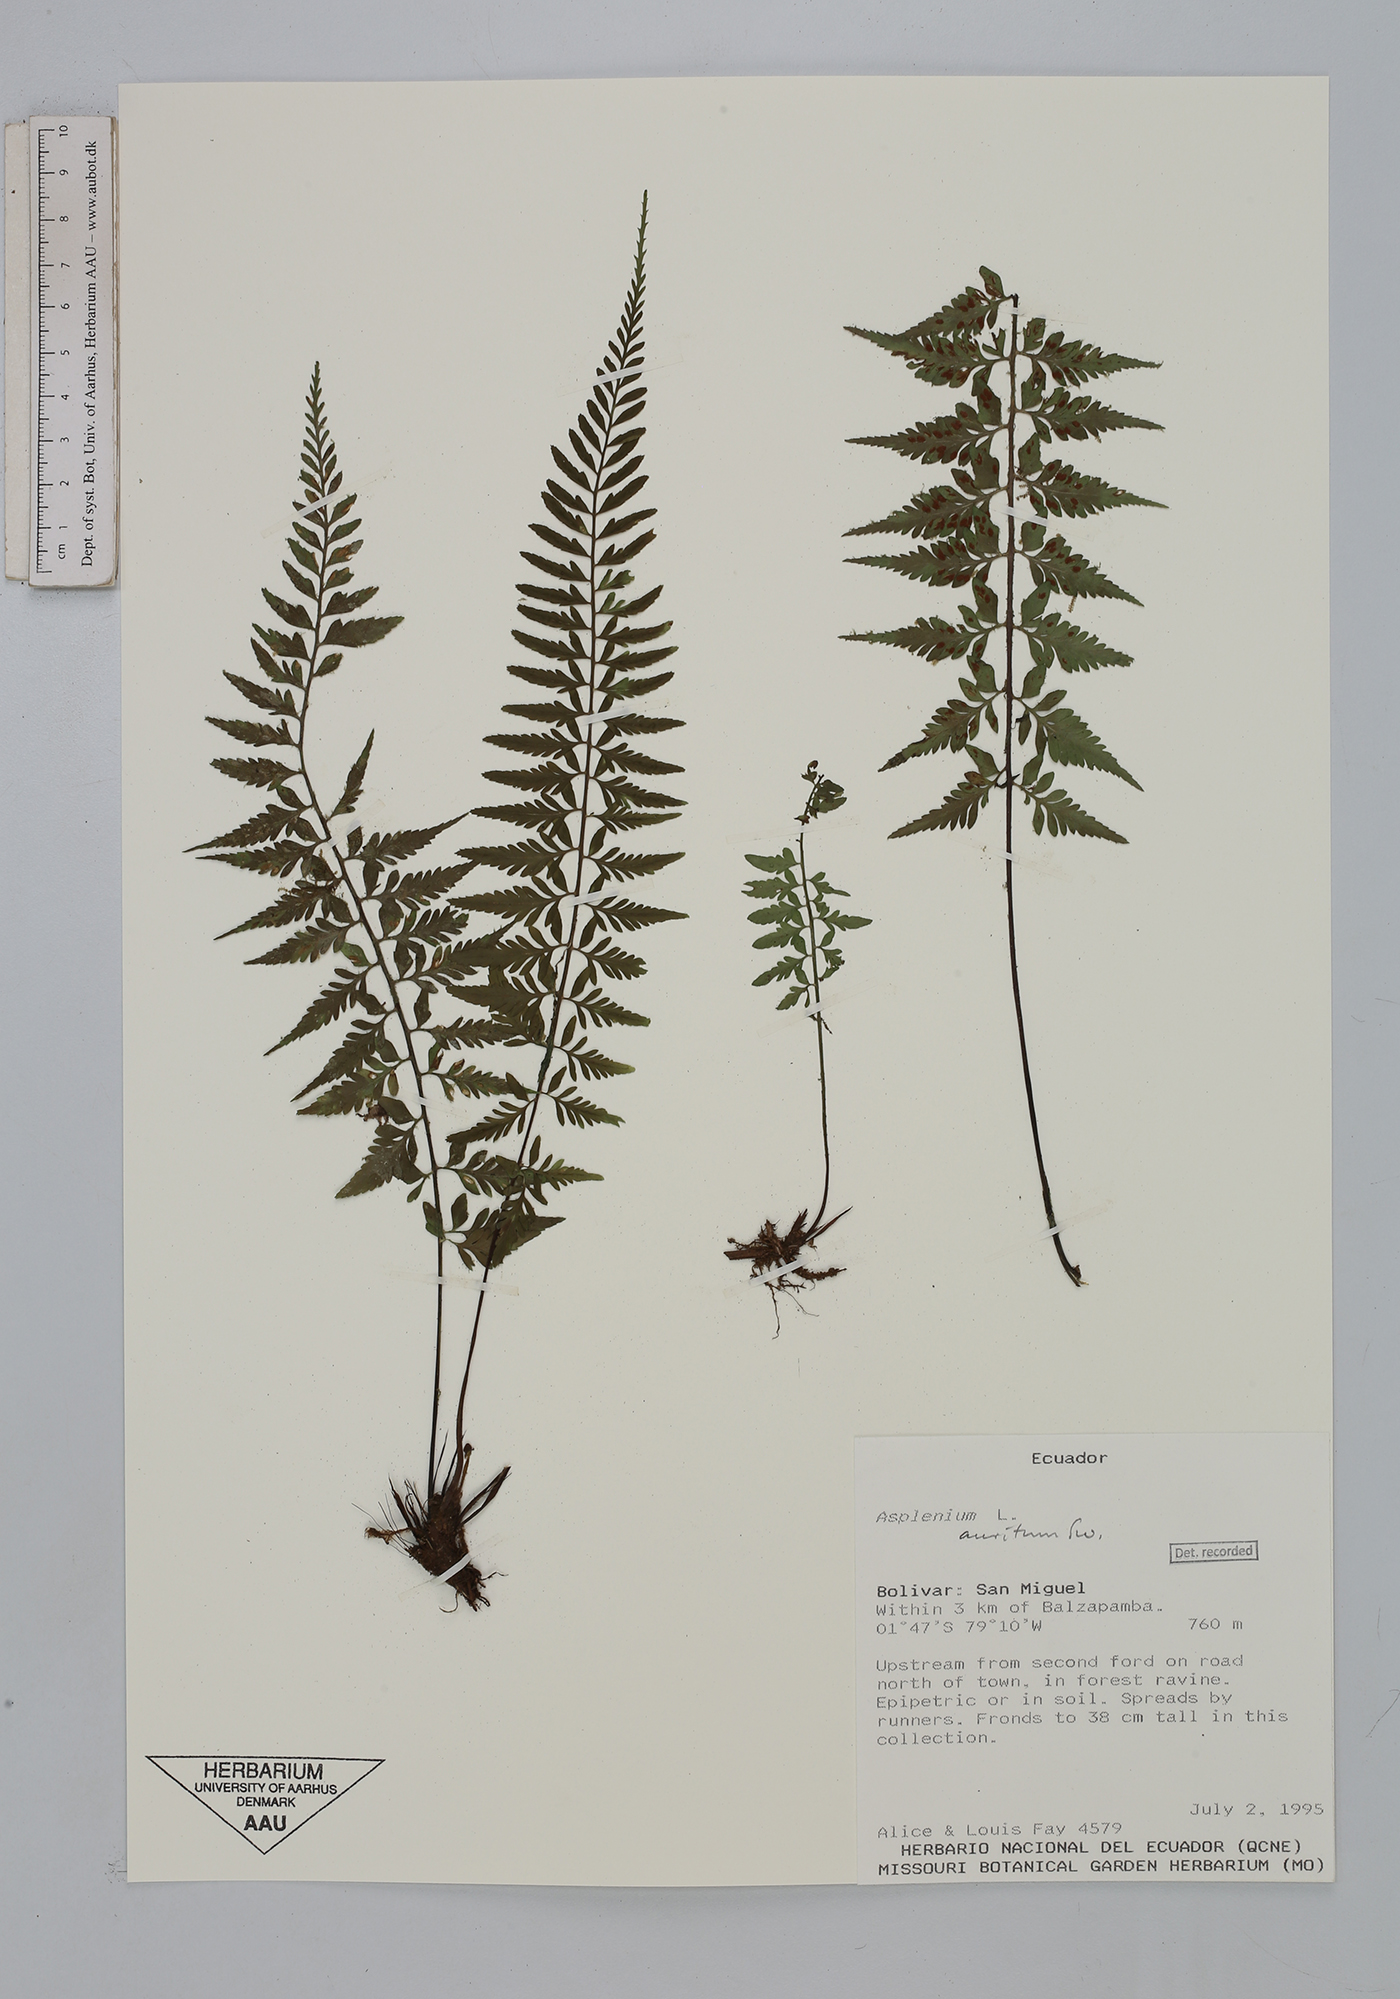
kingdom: Plantae
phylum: Tracheophyta
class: Polypodiopsida
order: Polypodiales
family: Aspleniaceae
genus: Asplenium
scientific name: Asplenium auritum
